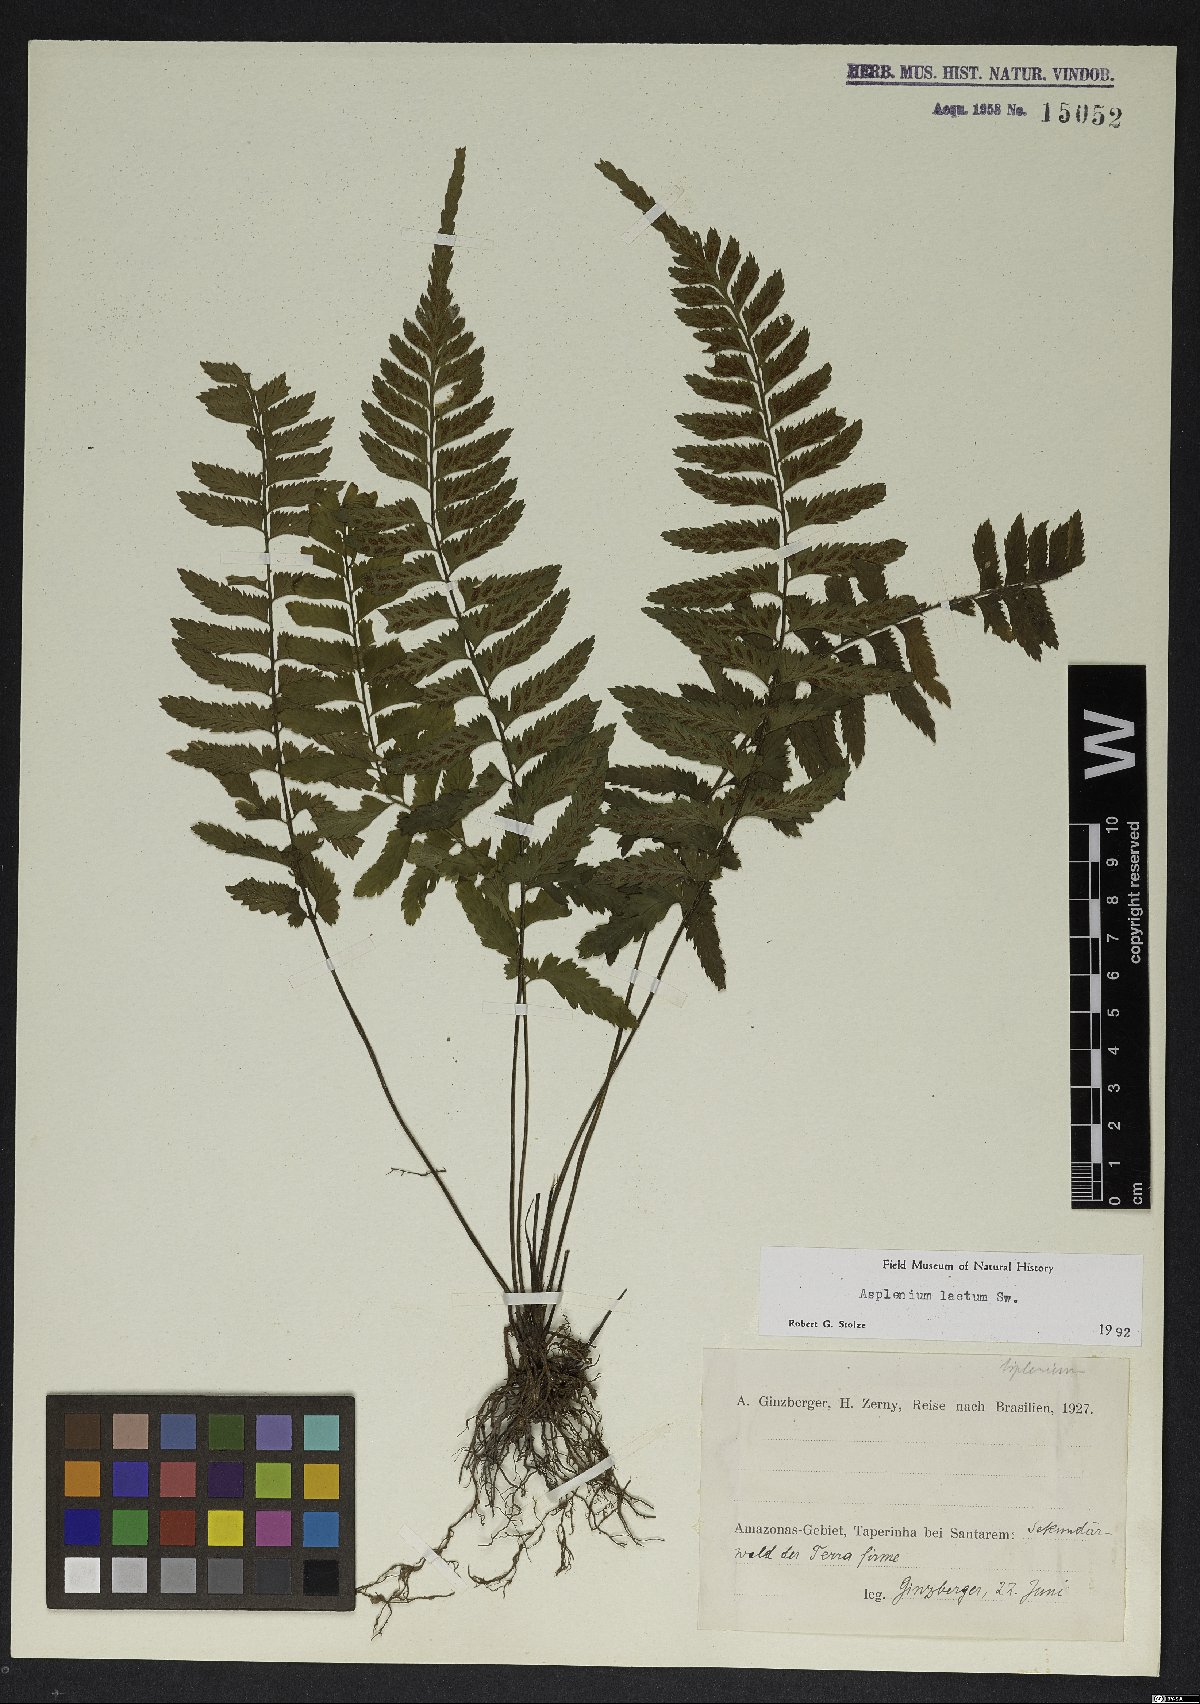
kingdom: Plantae
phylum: Tracheophyta
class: Polypodiopsida
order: Polypodiales
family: Aspleniaceae
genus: Hymenasplenium
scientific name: Hymenasplenium incisoserratum
